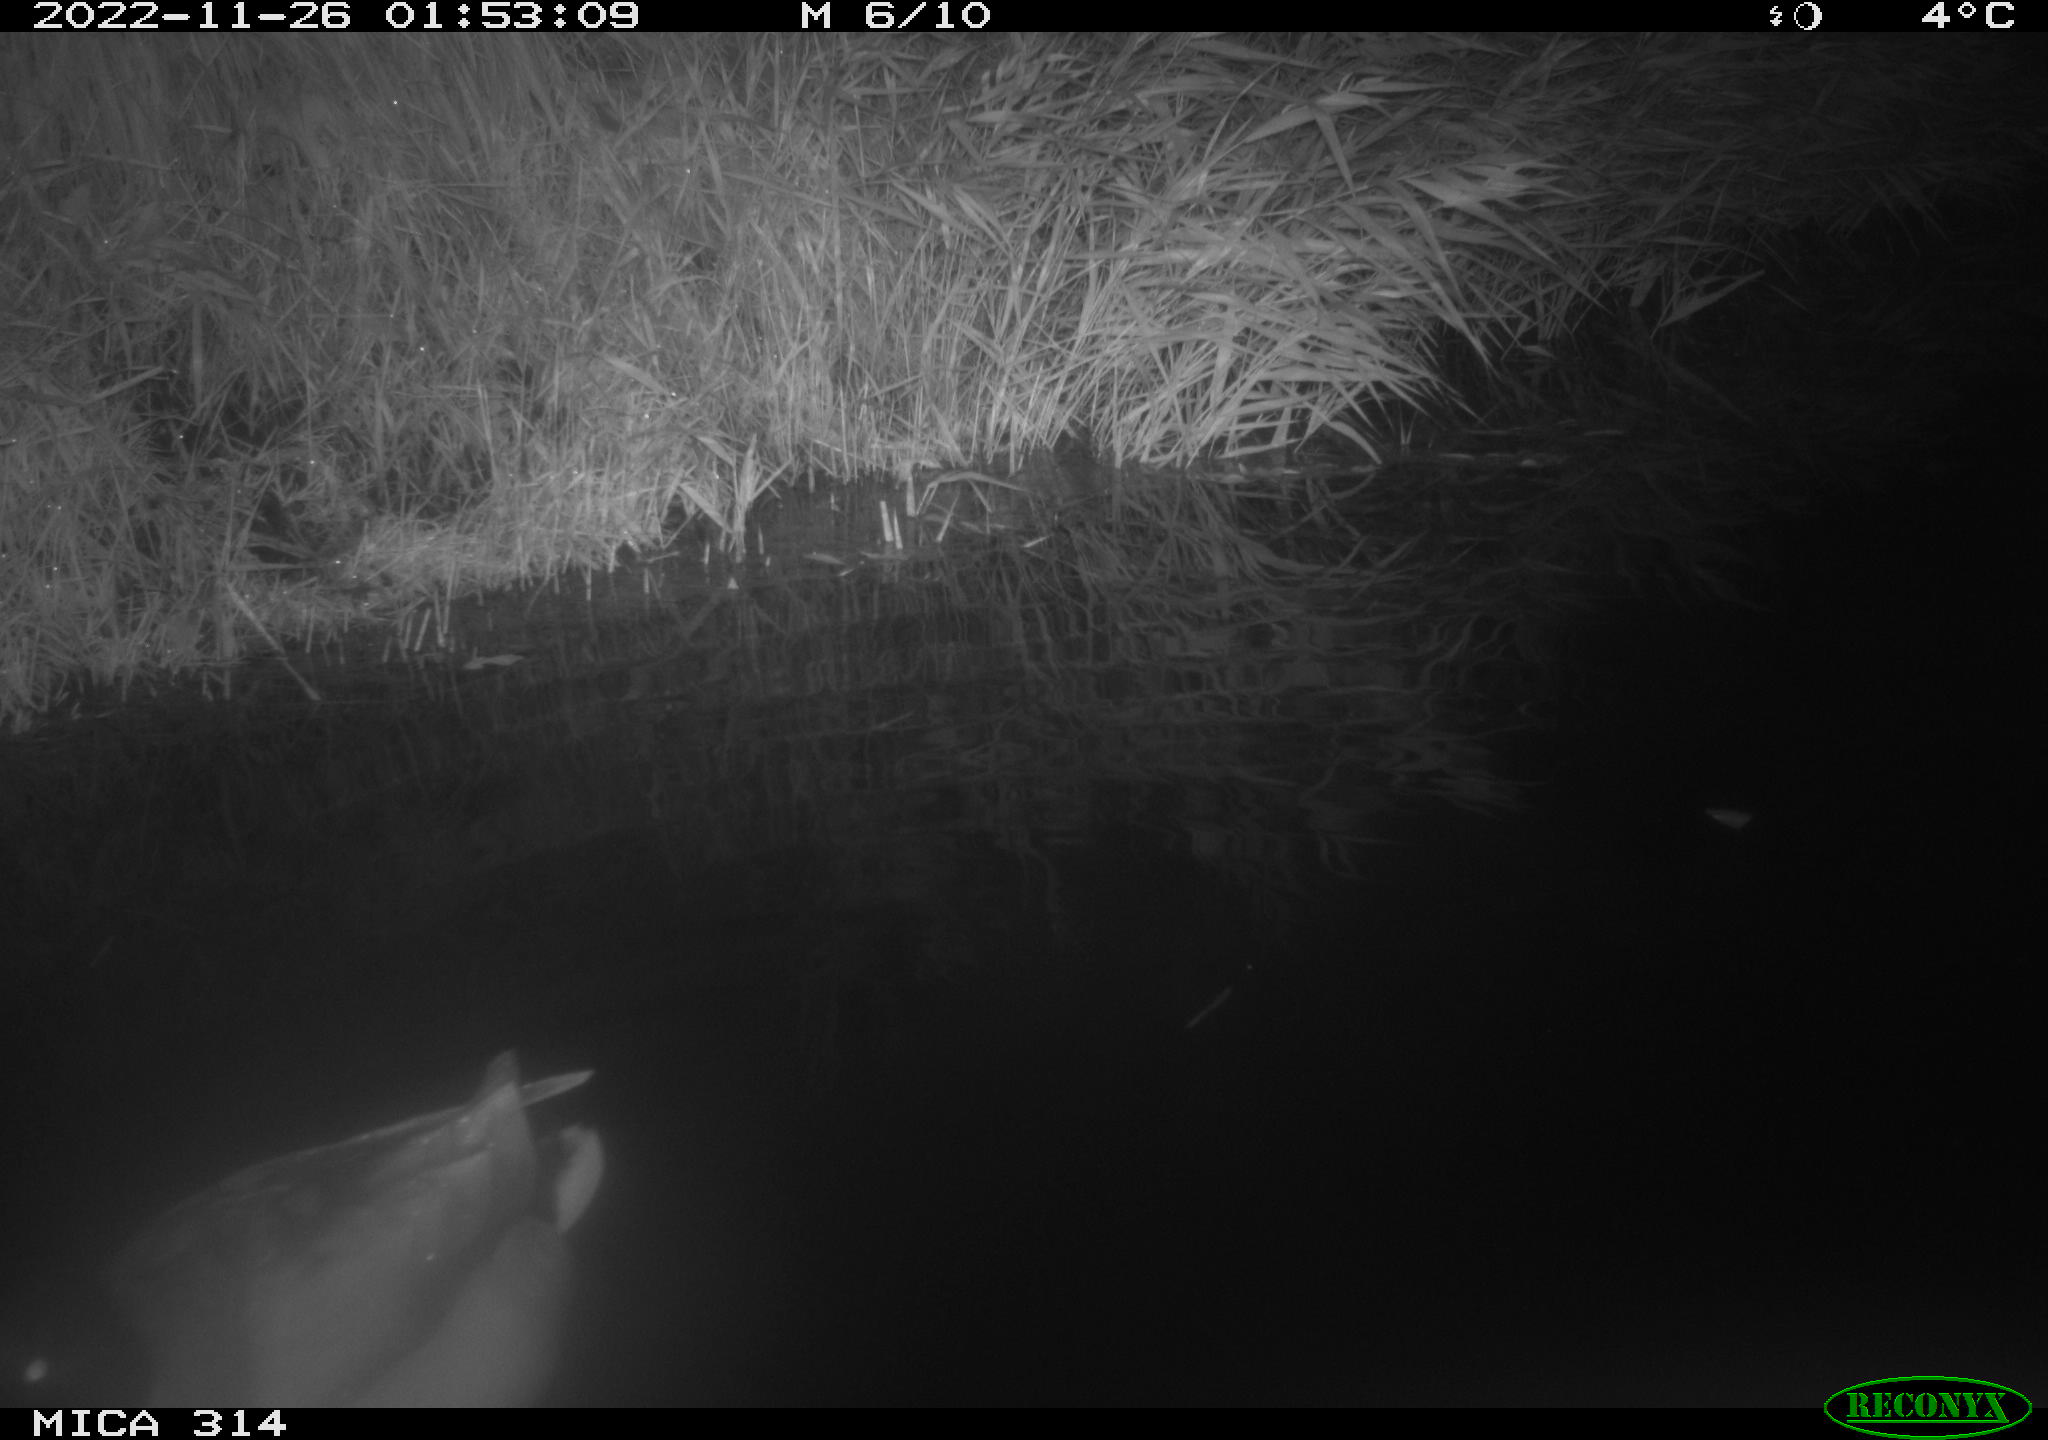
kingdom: Animalia
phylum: Chordata
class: Aves
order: Anseriformes
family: Anatidae
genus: Anas
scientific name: Anas
